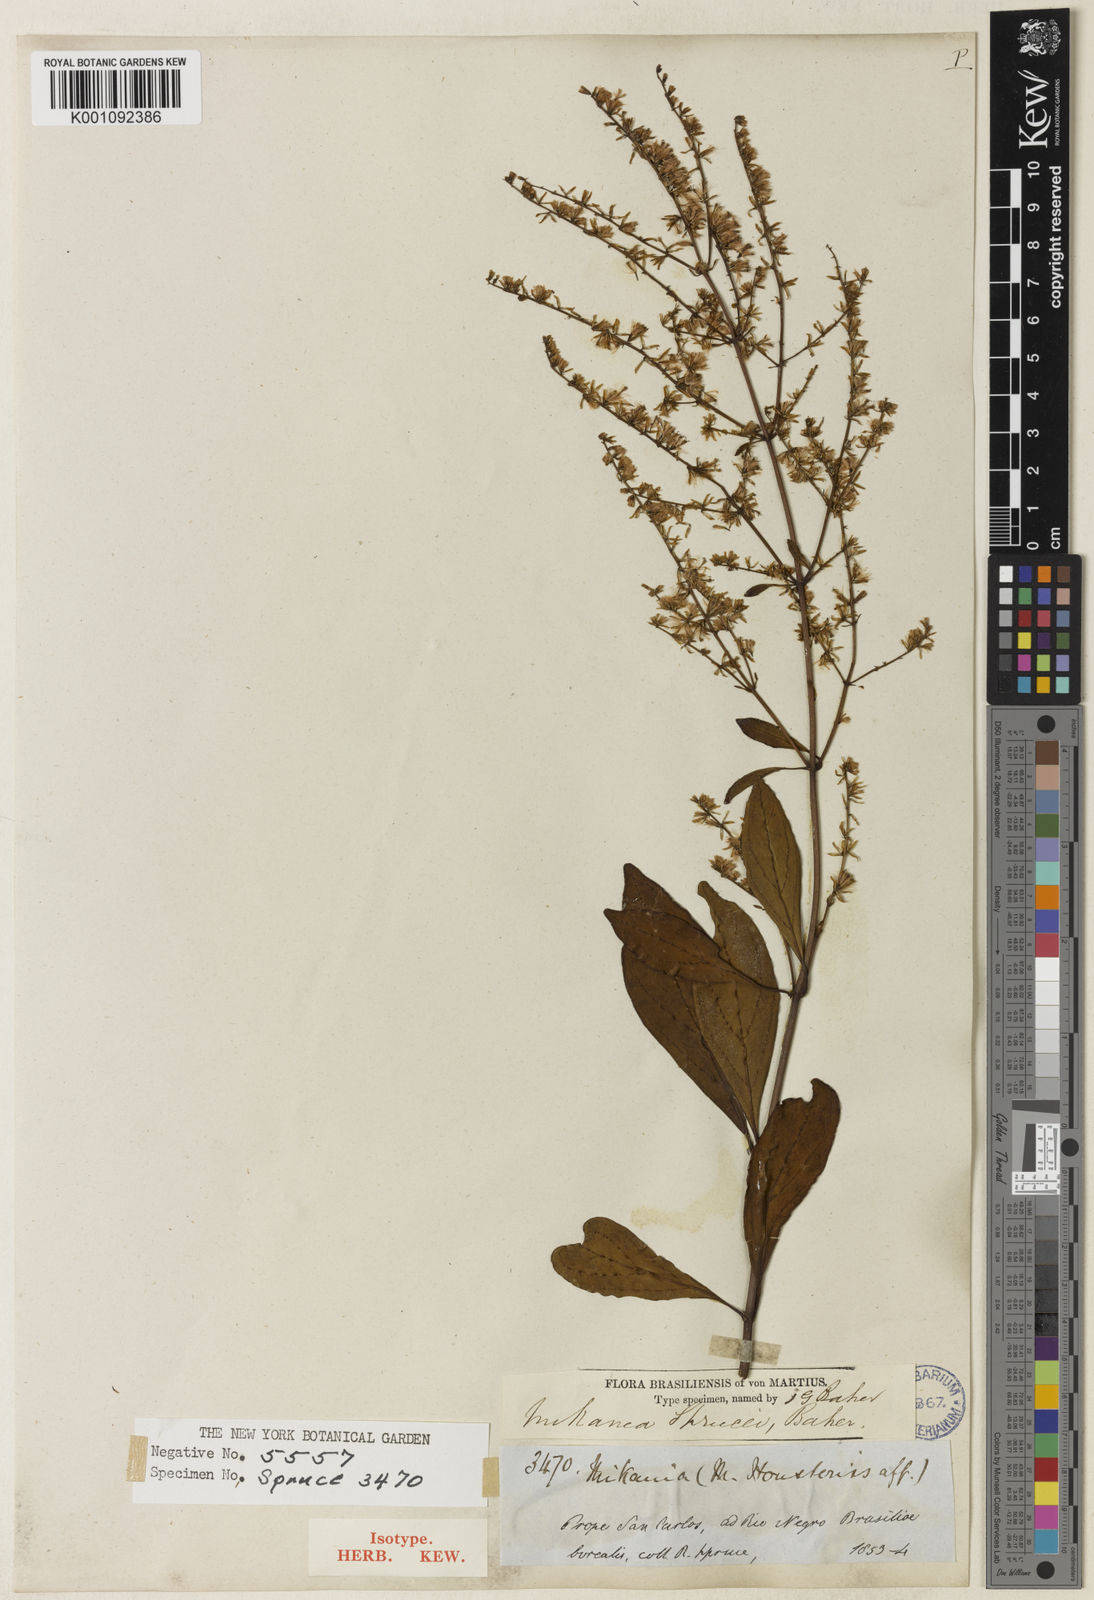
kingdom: Plantae
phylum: Tracheophyta
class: Magnoliopsida
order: Asterales
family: Asteraceae
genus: Mikania
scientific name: Mikania sprucei
